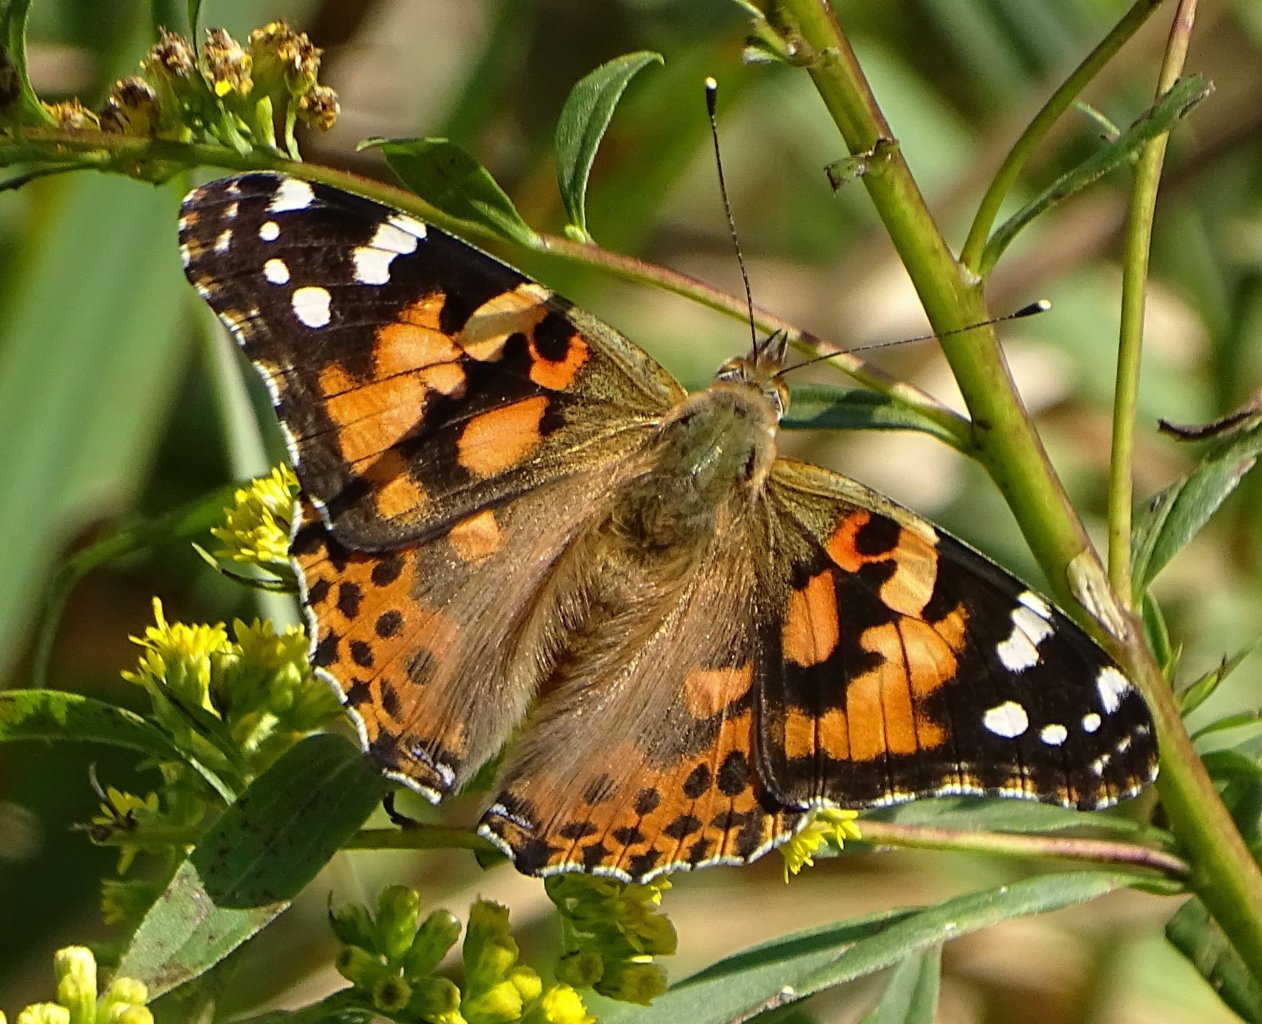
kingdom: Animalia
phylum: Arthropoda
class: Insecta
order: Lepidoptera
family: Nymphalidae
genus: Vanessa
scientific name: Vanessa cardui
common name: Painted Lady
